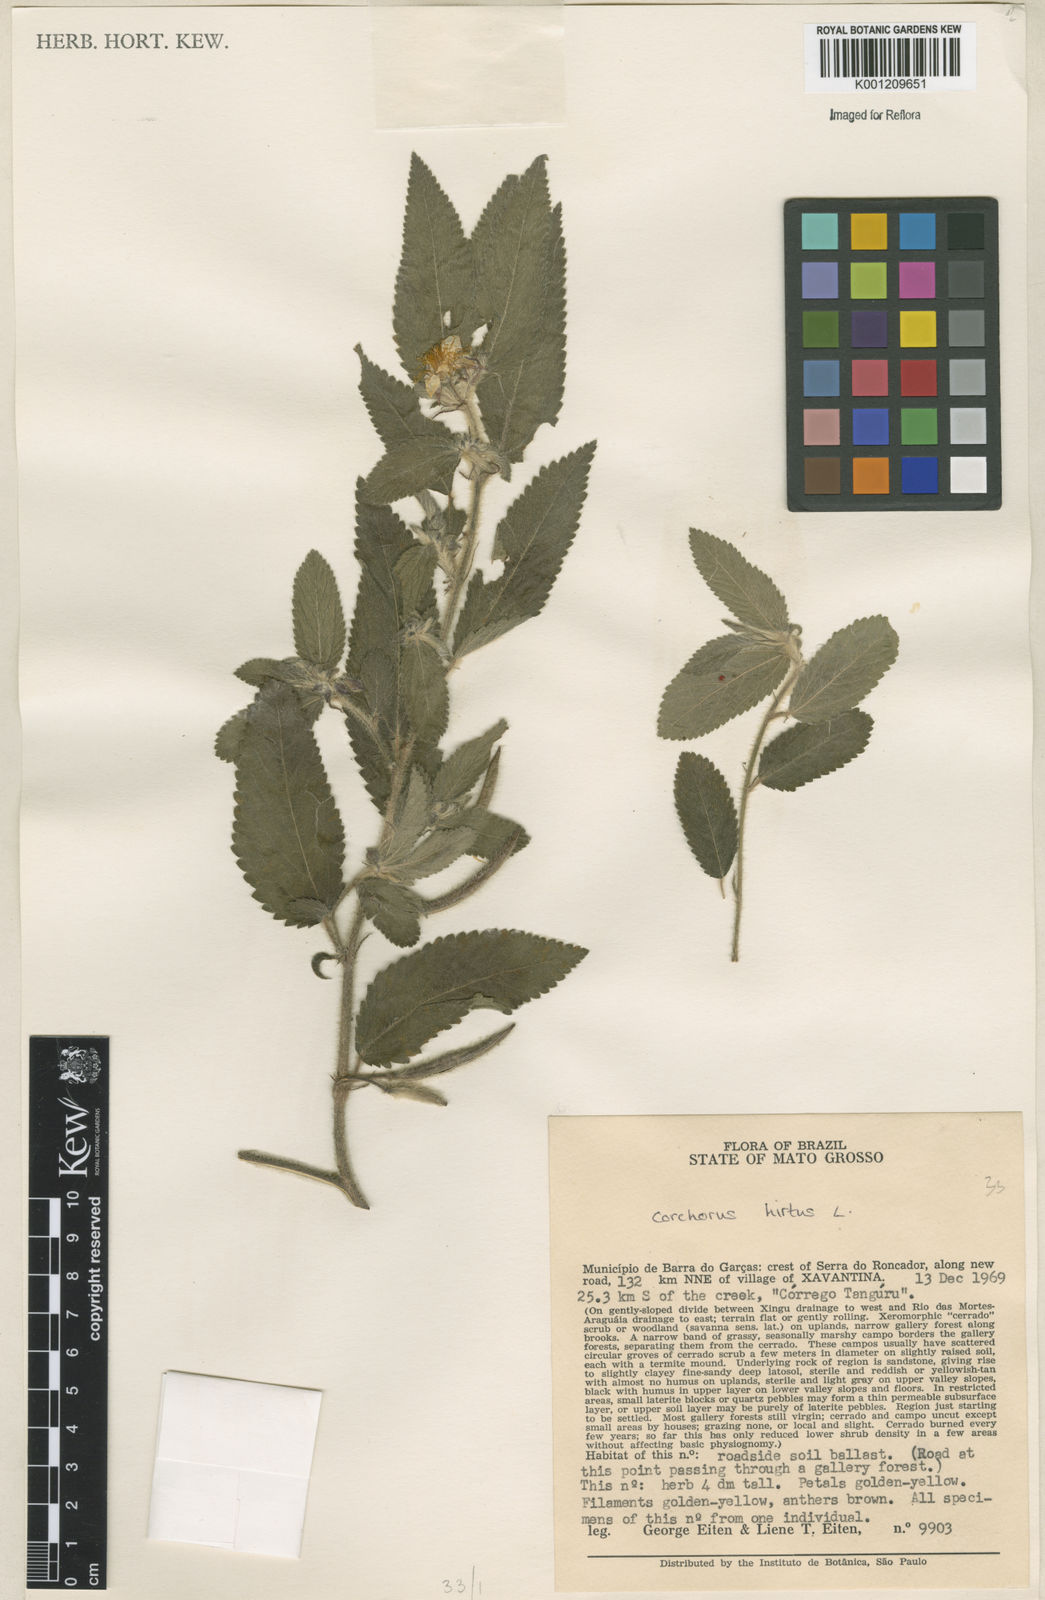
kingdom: Plantae
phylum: Tracheophyta
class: Magnoliopsida
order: Malvales
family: Malvaceae
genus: Corchorus
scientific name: Corchorus hirtus
